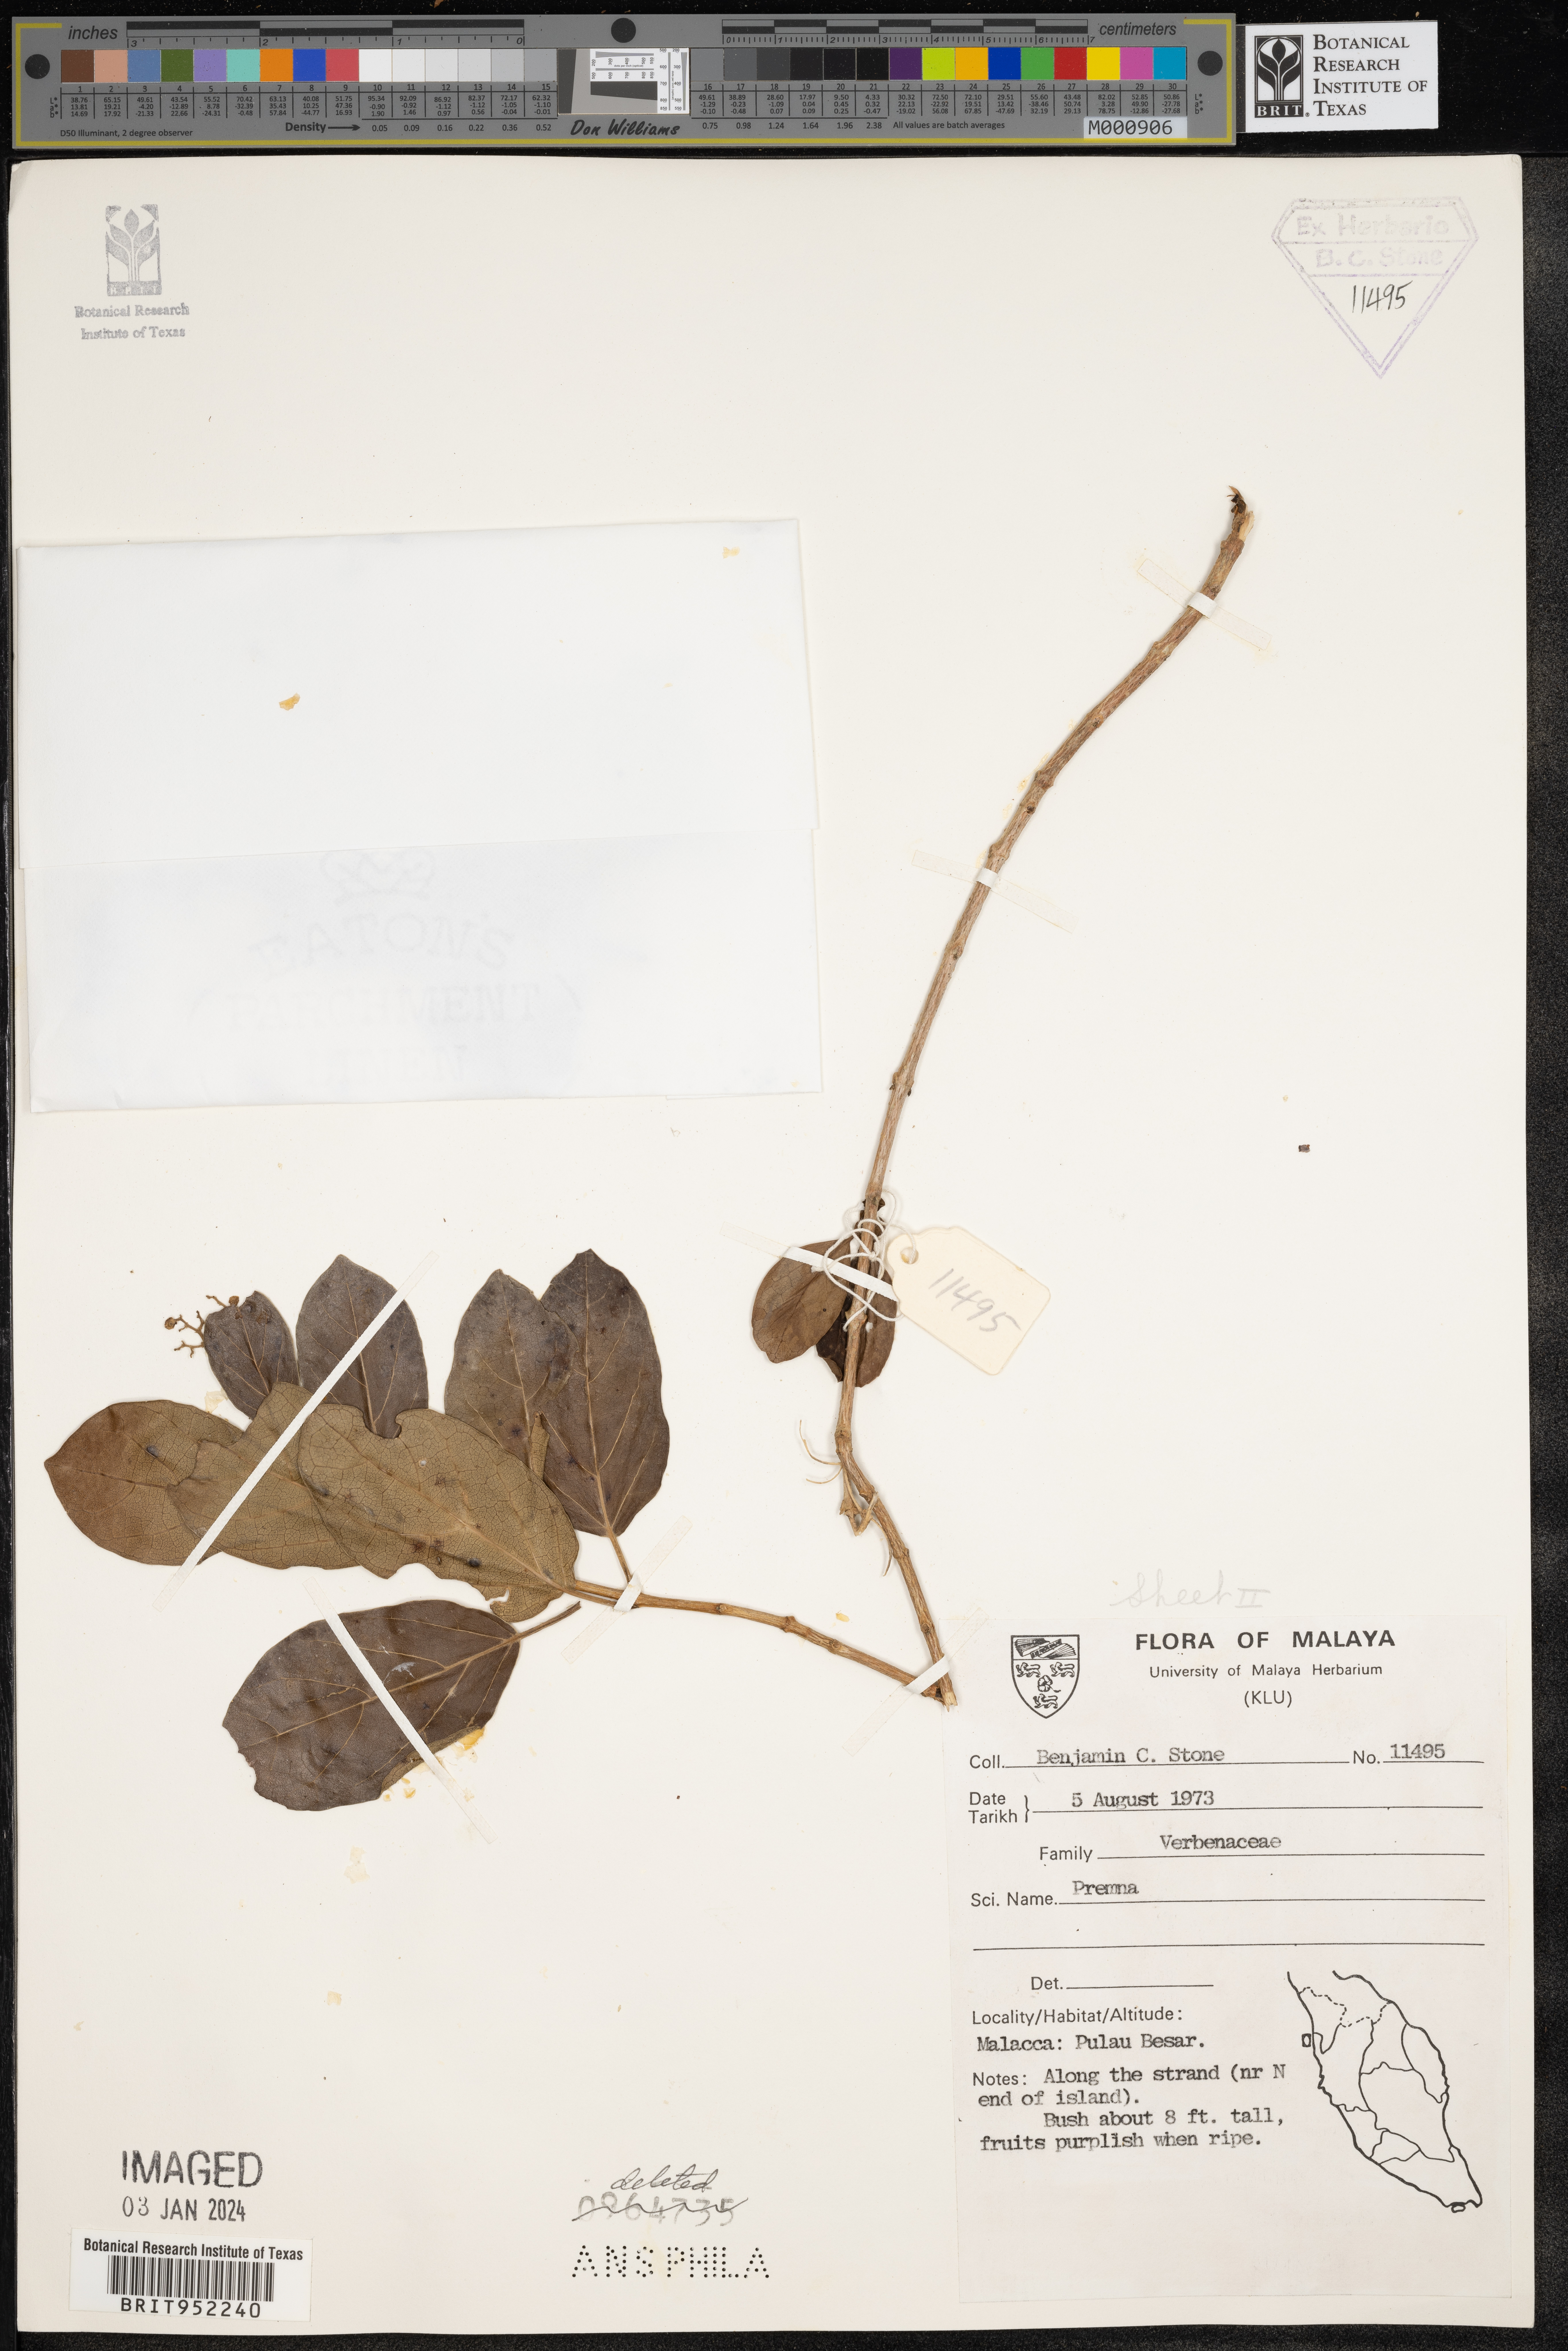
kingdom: Plantae
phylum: Tracheophyta
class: Magnoliopsida
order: Lamiales
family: Lamiaceae
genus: Premna
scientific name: Premna
